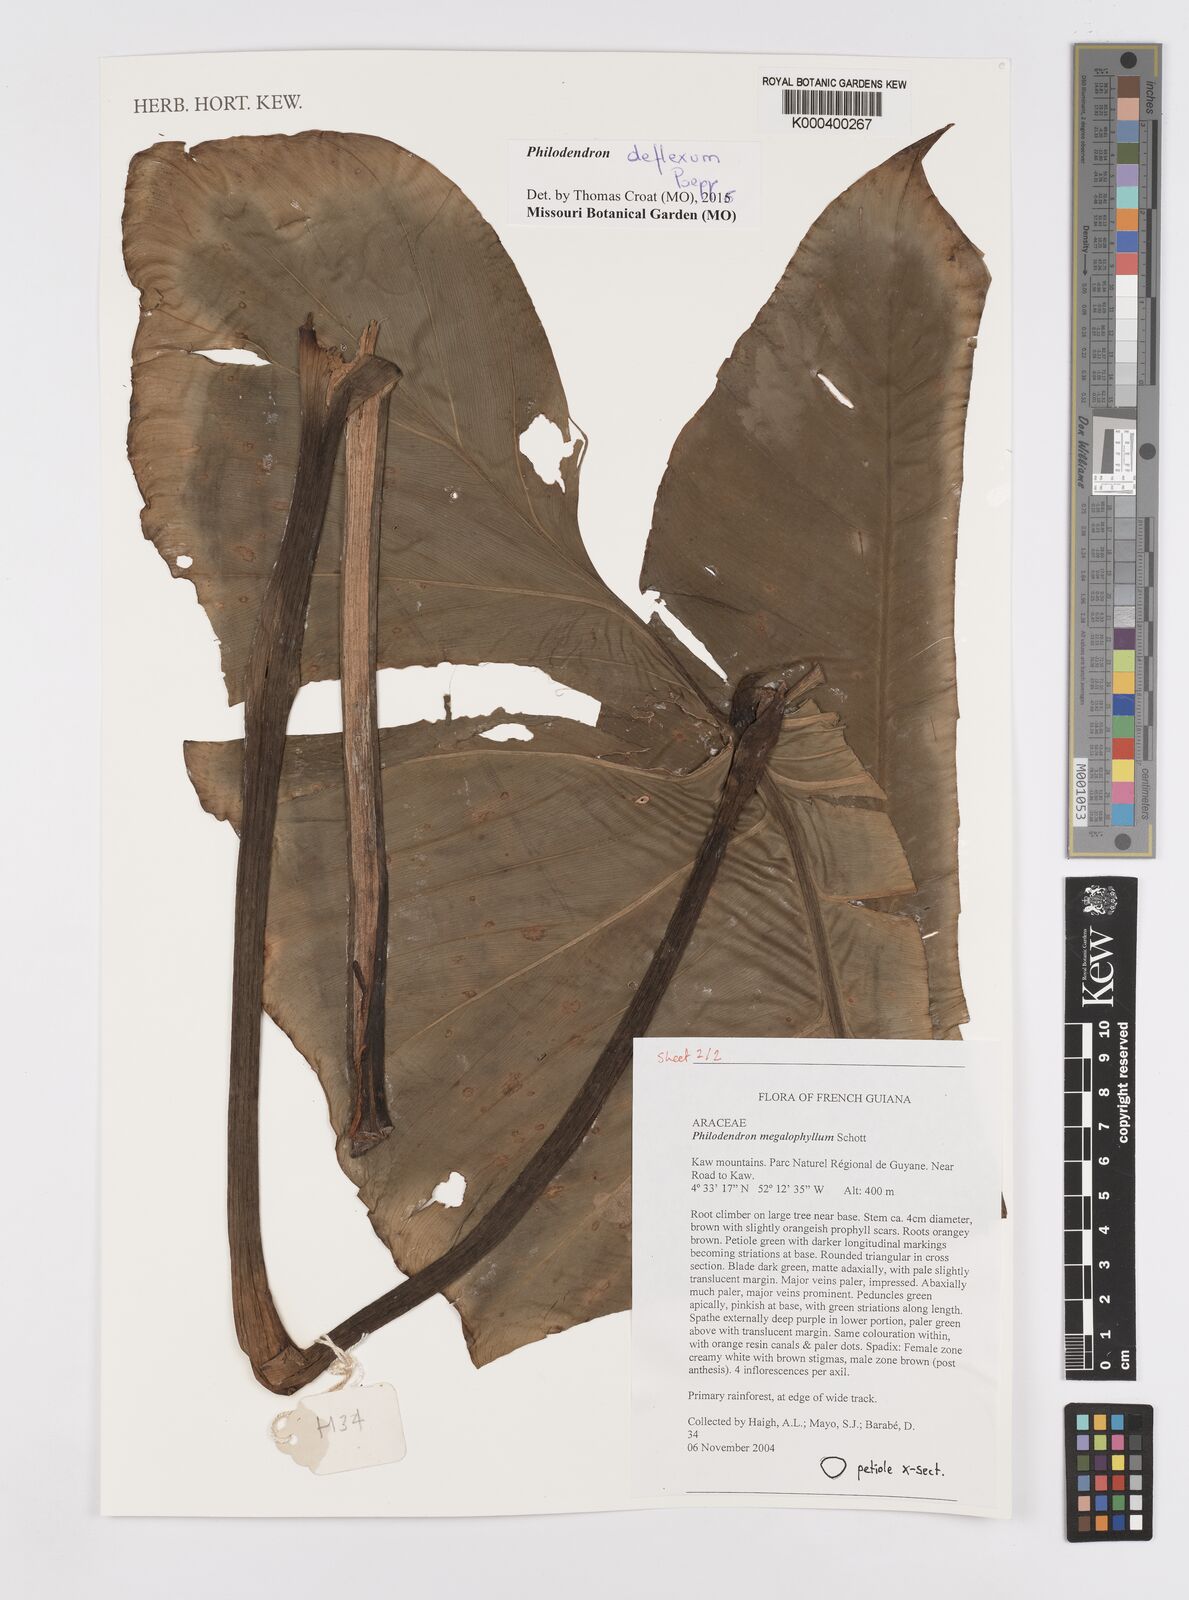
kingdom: Plantae
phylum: Tracheophyta
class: Liliopsida
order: Alismatales
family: Araceae
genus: Philodendron
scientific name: Philodendron megalophyllum
